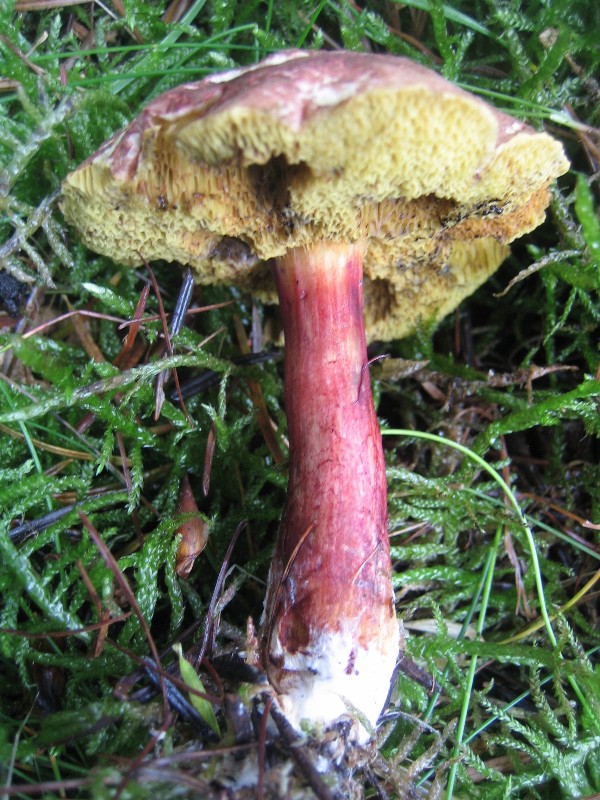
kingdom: Fungi
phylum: Basidiomycota
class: Agaricomycetes
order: Boletales
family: Boletaceae
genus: Xerocomellus
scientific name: Xerocomellus chrysenteron
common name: rødsprukken rørhat
